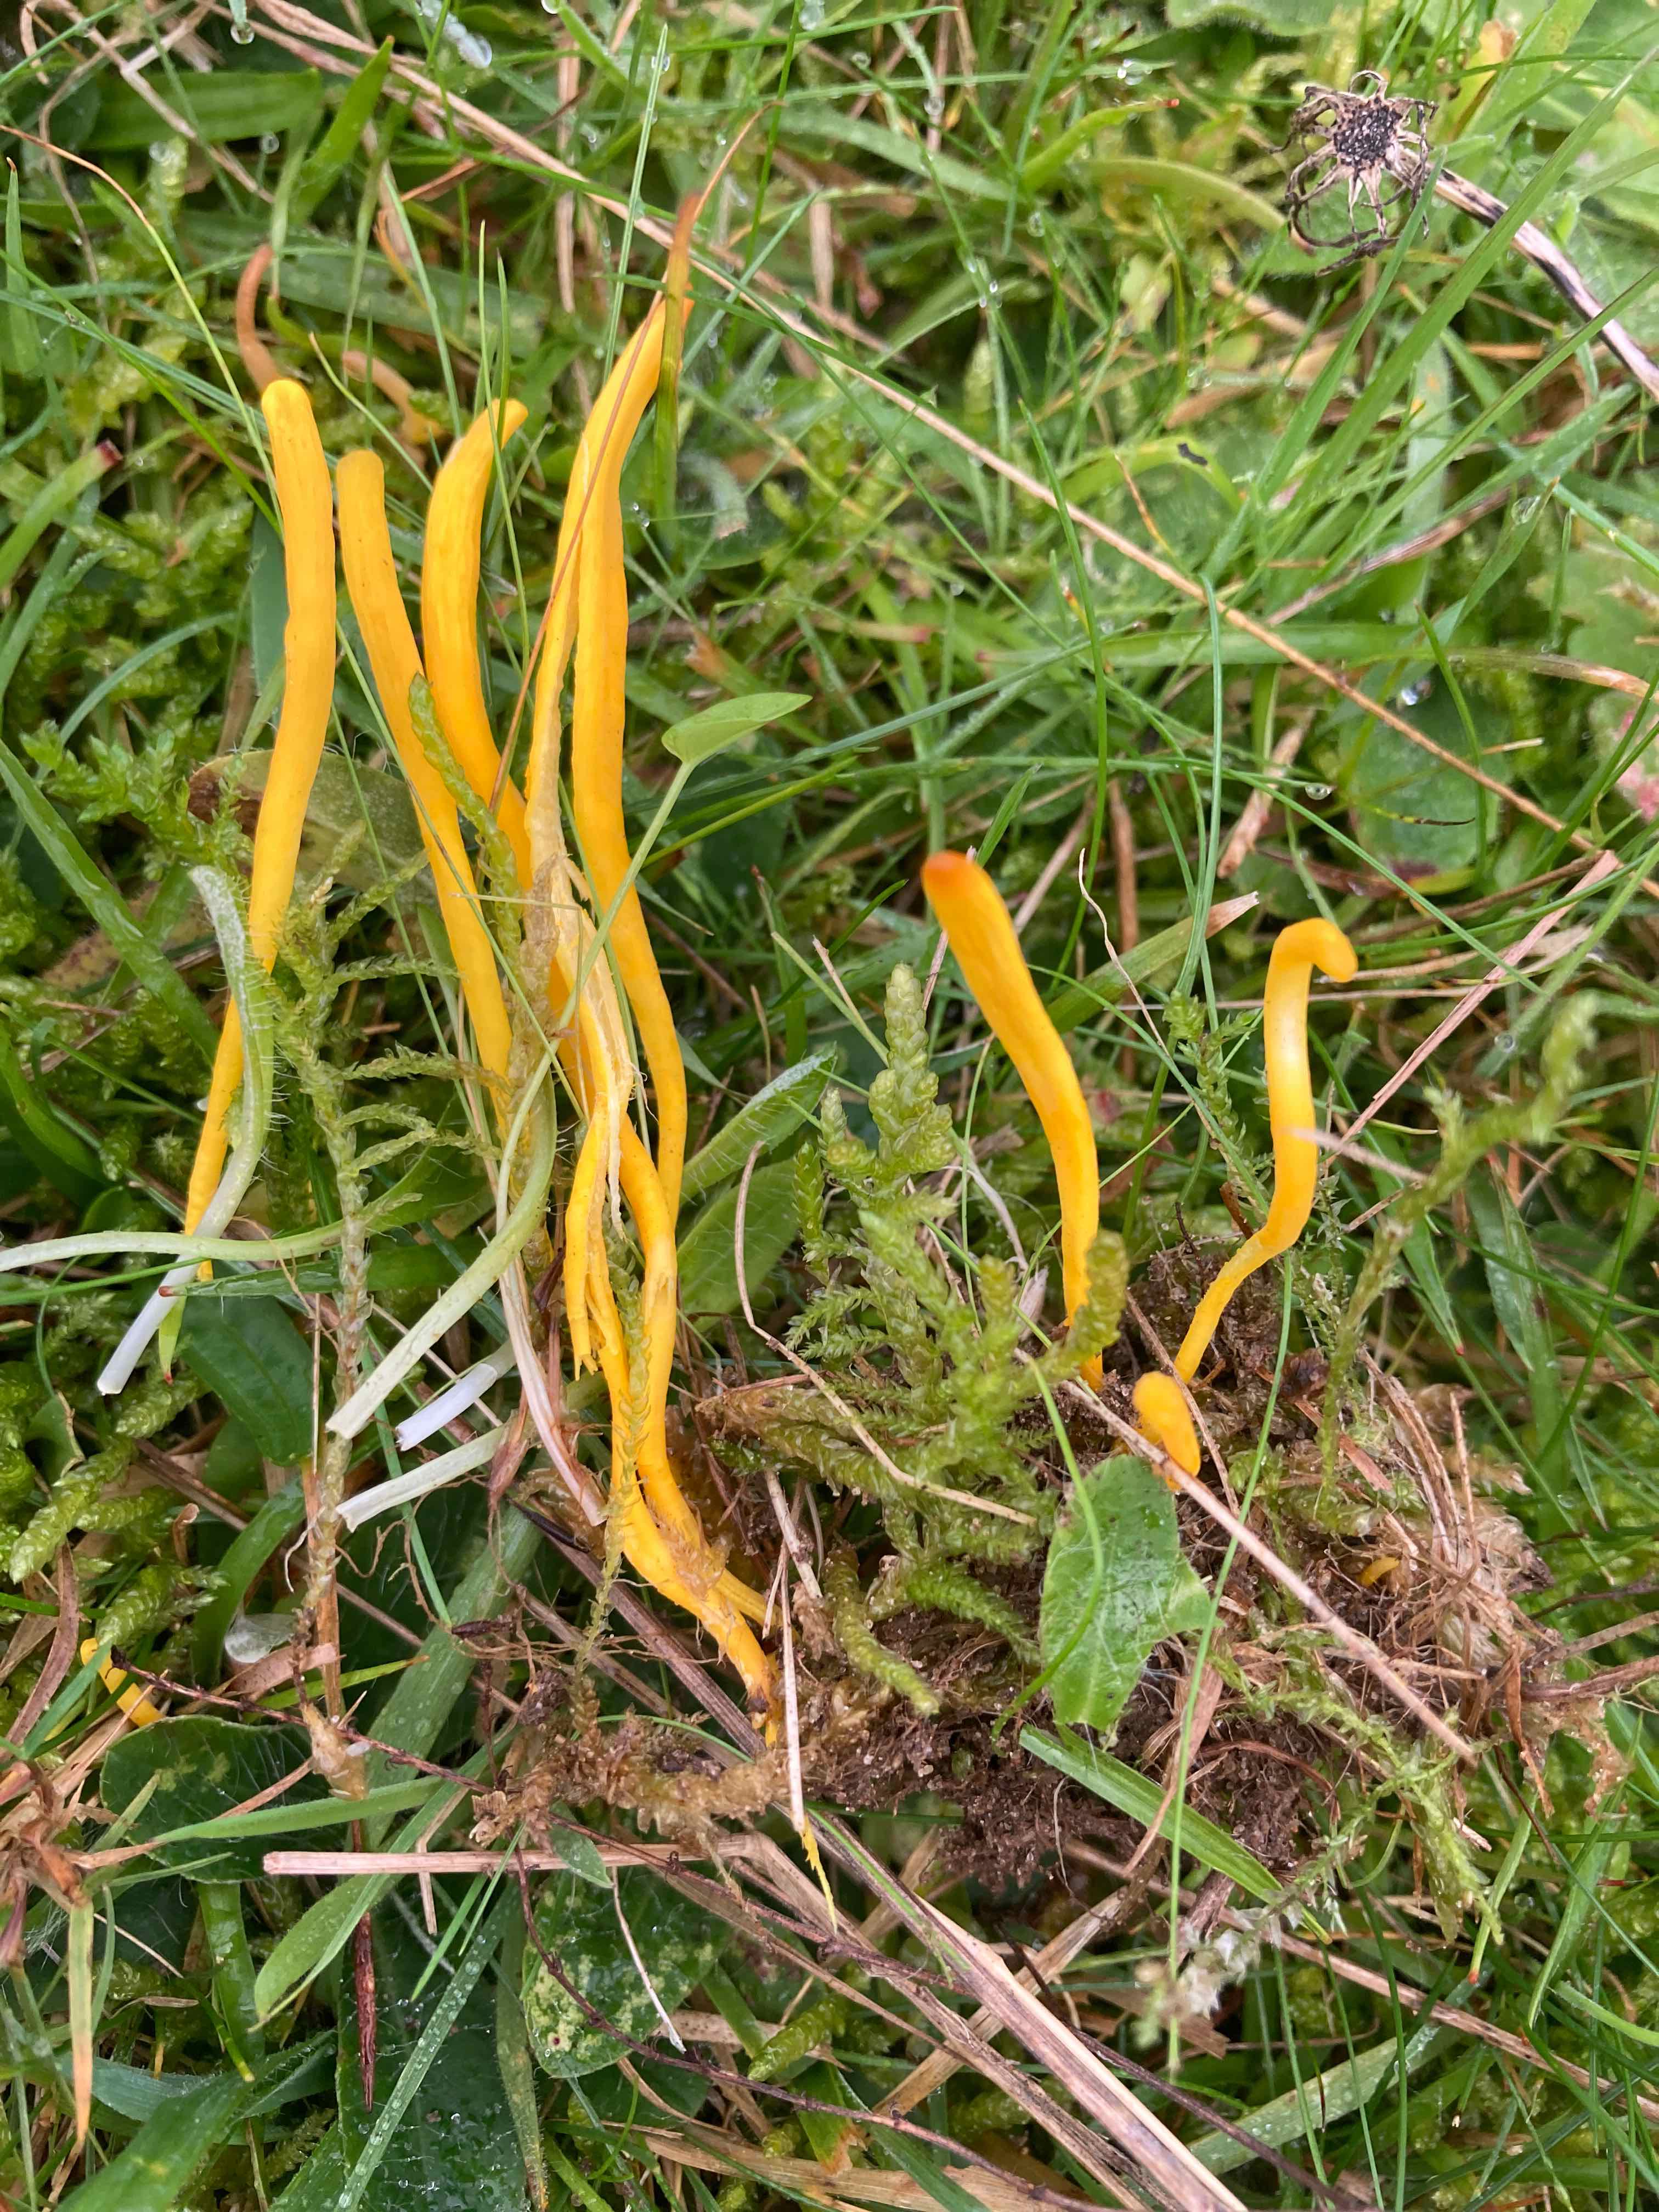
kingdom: Fungi
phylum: Basidiomycota
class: Agaricomycetes
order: Agaricales
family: Clavariaceae
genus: Clavulinopsis
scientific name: Clavulinopsis helvola
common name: orangegul køllesvamp
